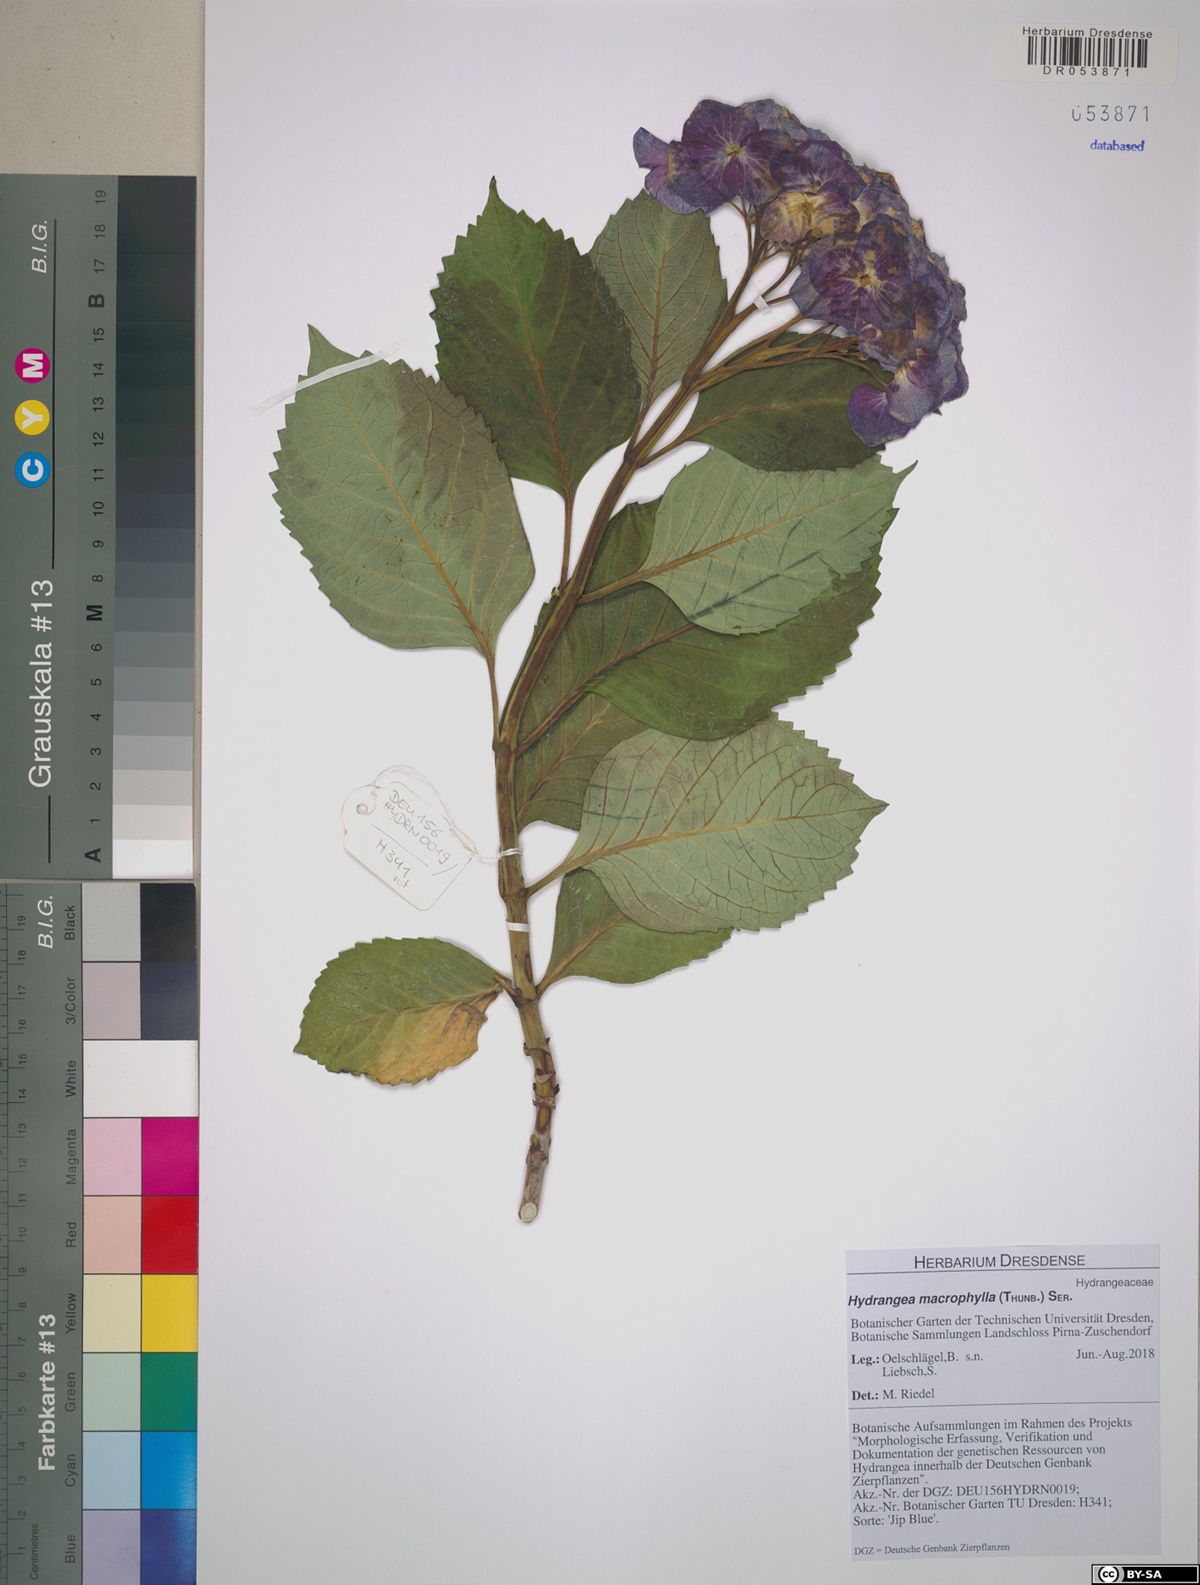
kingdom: Plantae
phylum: Tracheophyta
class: Magnoliopsida
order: Cornales
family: Hydrangeaceae
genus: Hydrangea
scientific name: Hydrangea macrophylla
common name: Hydrangea
